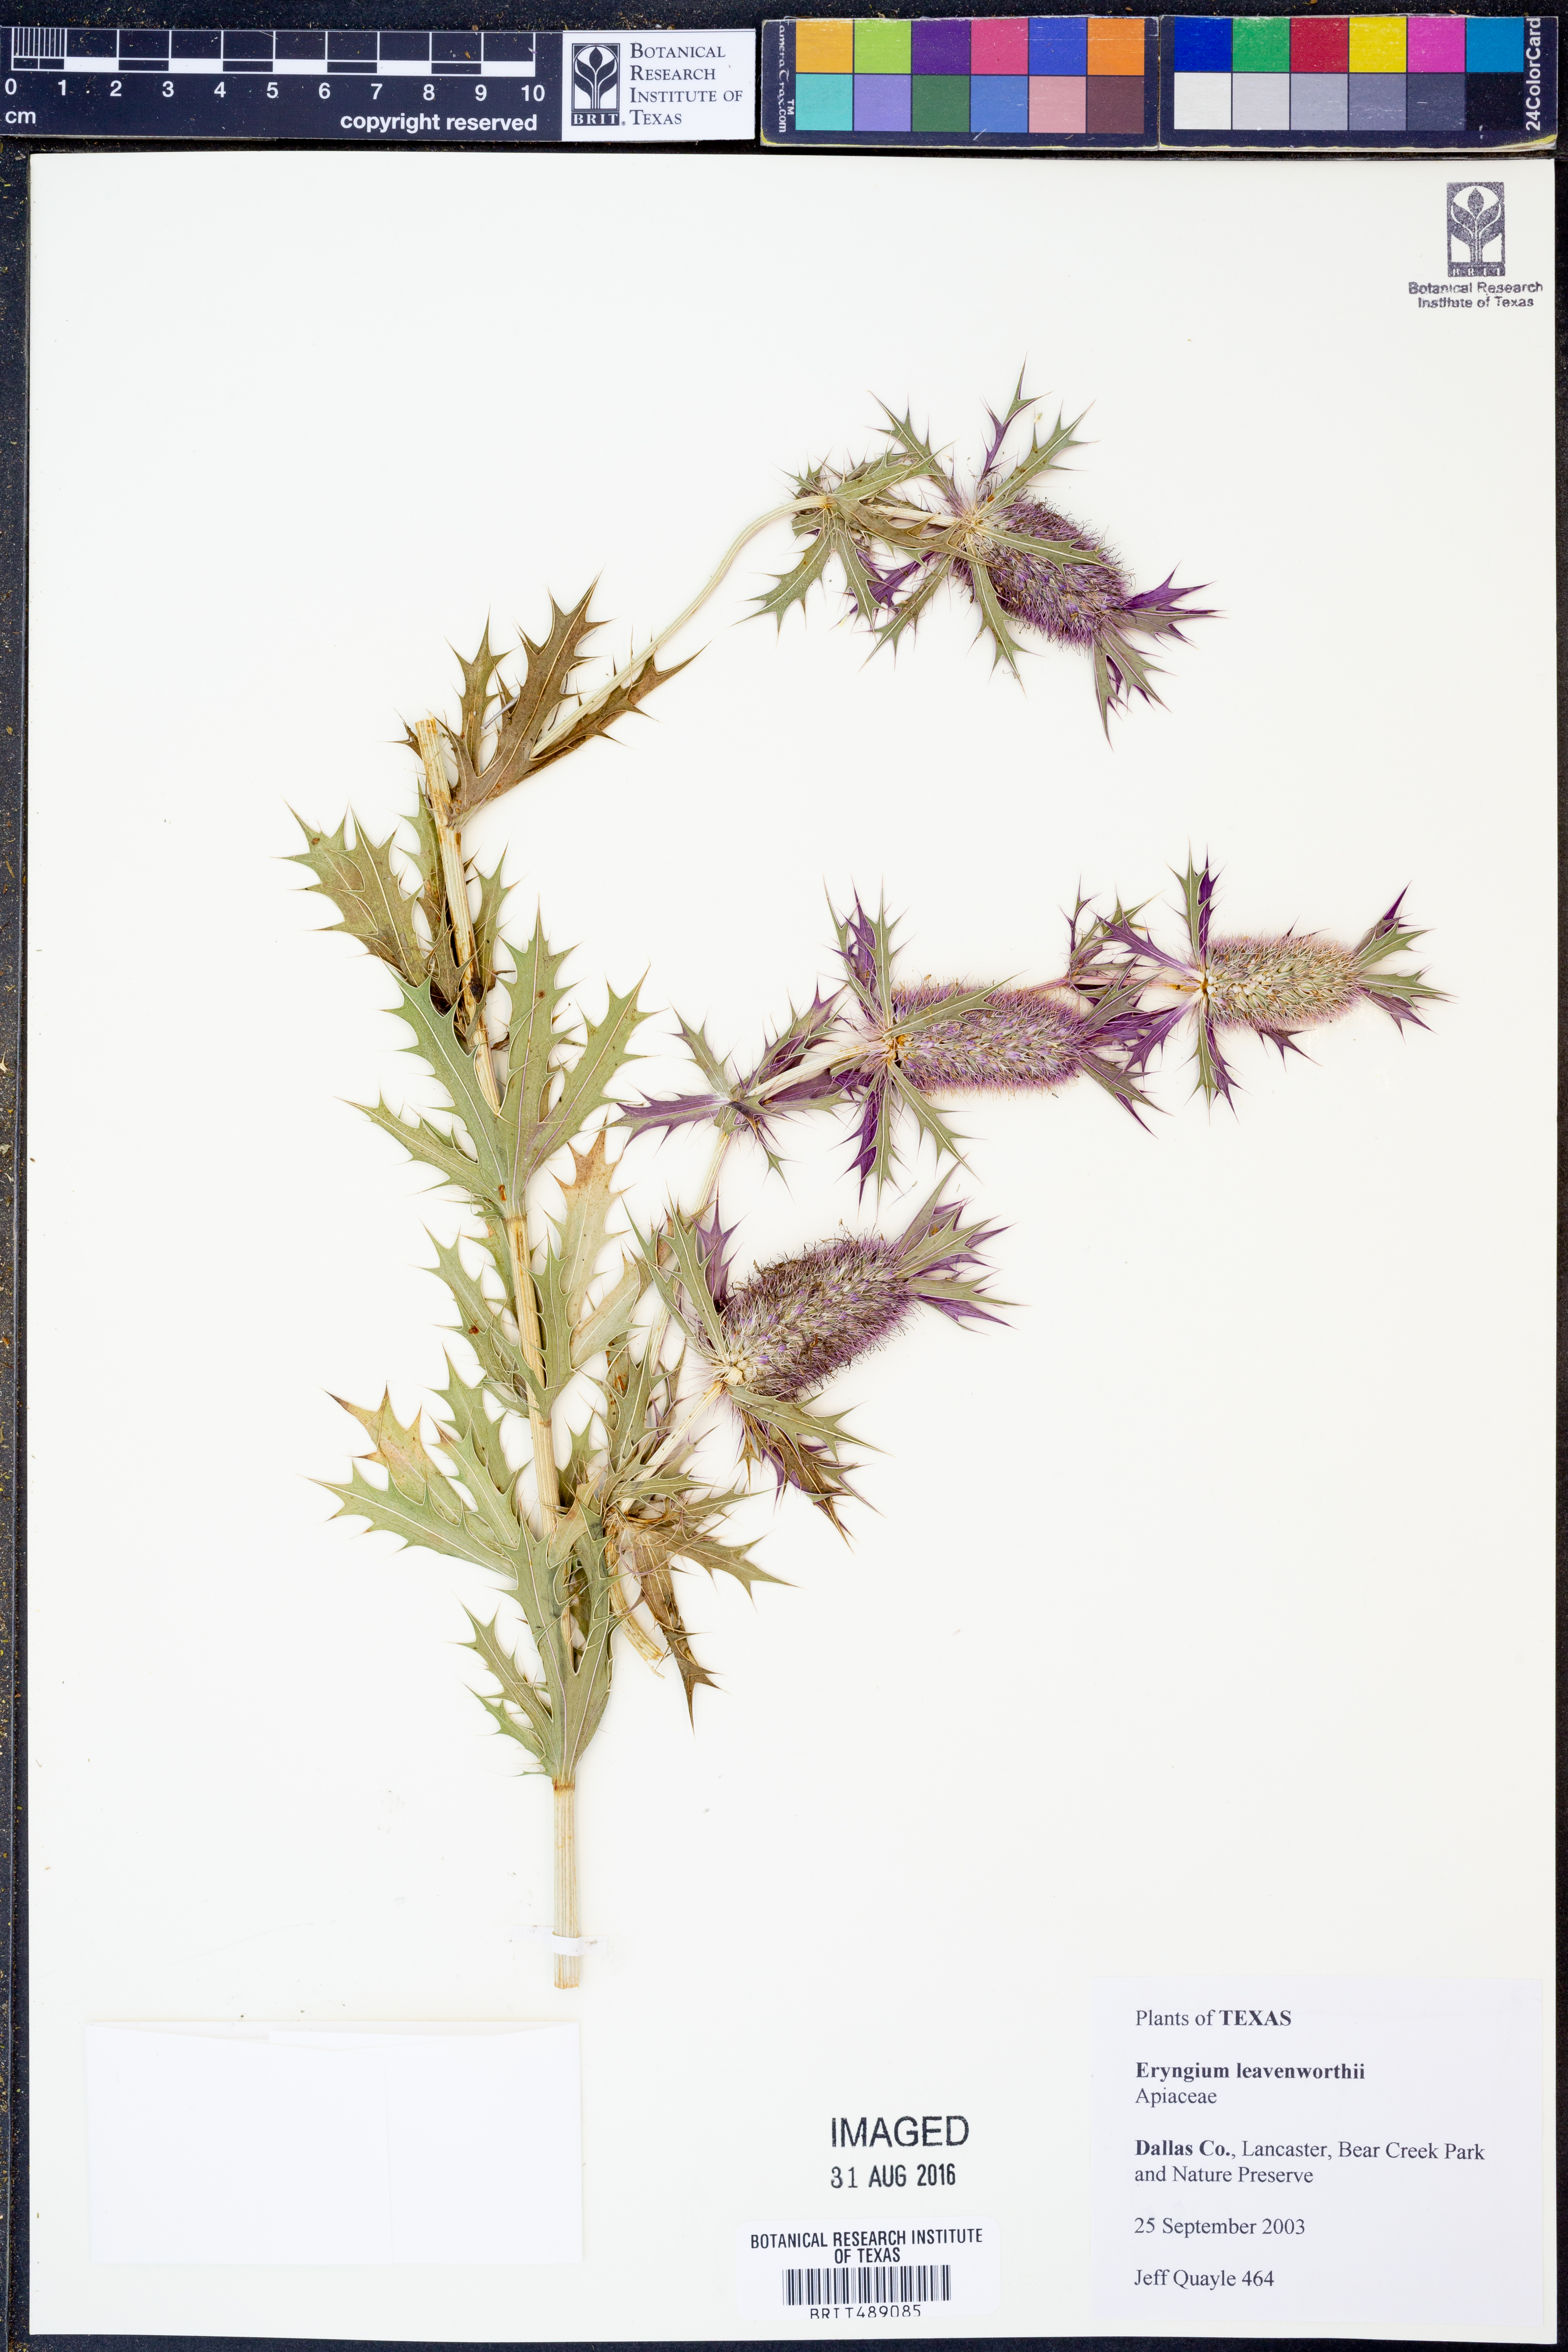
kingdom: Plantae
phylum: Tracheophyta
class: Magnoliopsida
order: Apiales
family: Apiaceae
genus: Eryngium
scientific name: Eryngium leavenworthii
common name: Leavenworth's eryngo
